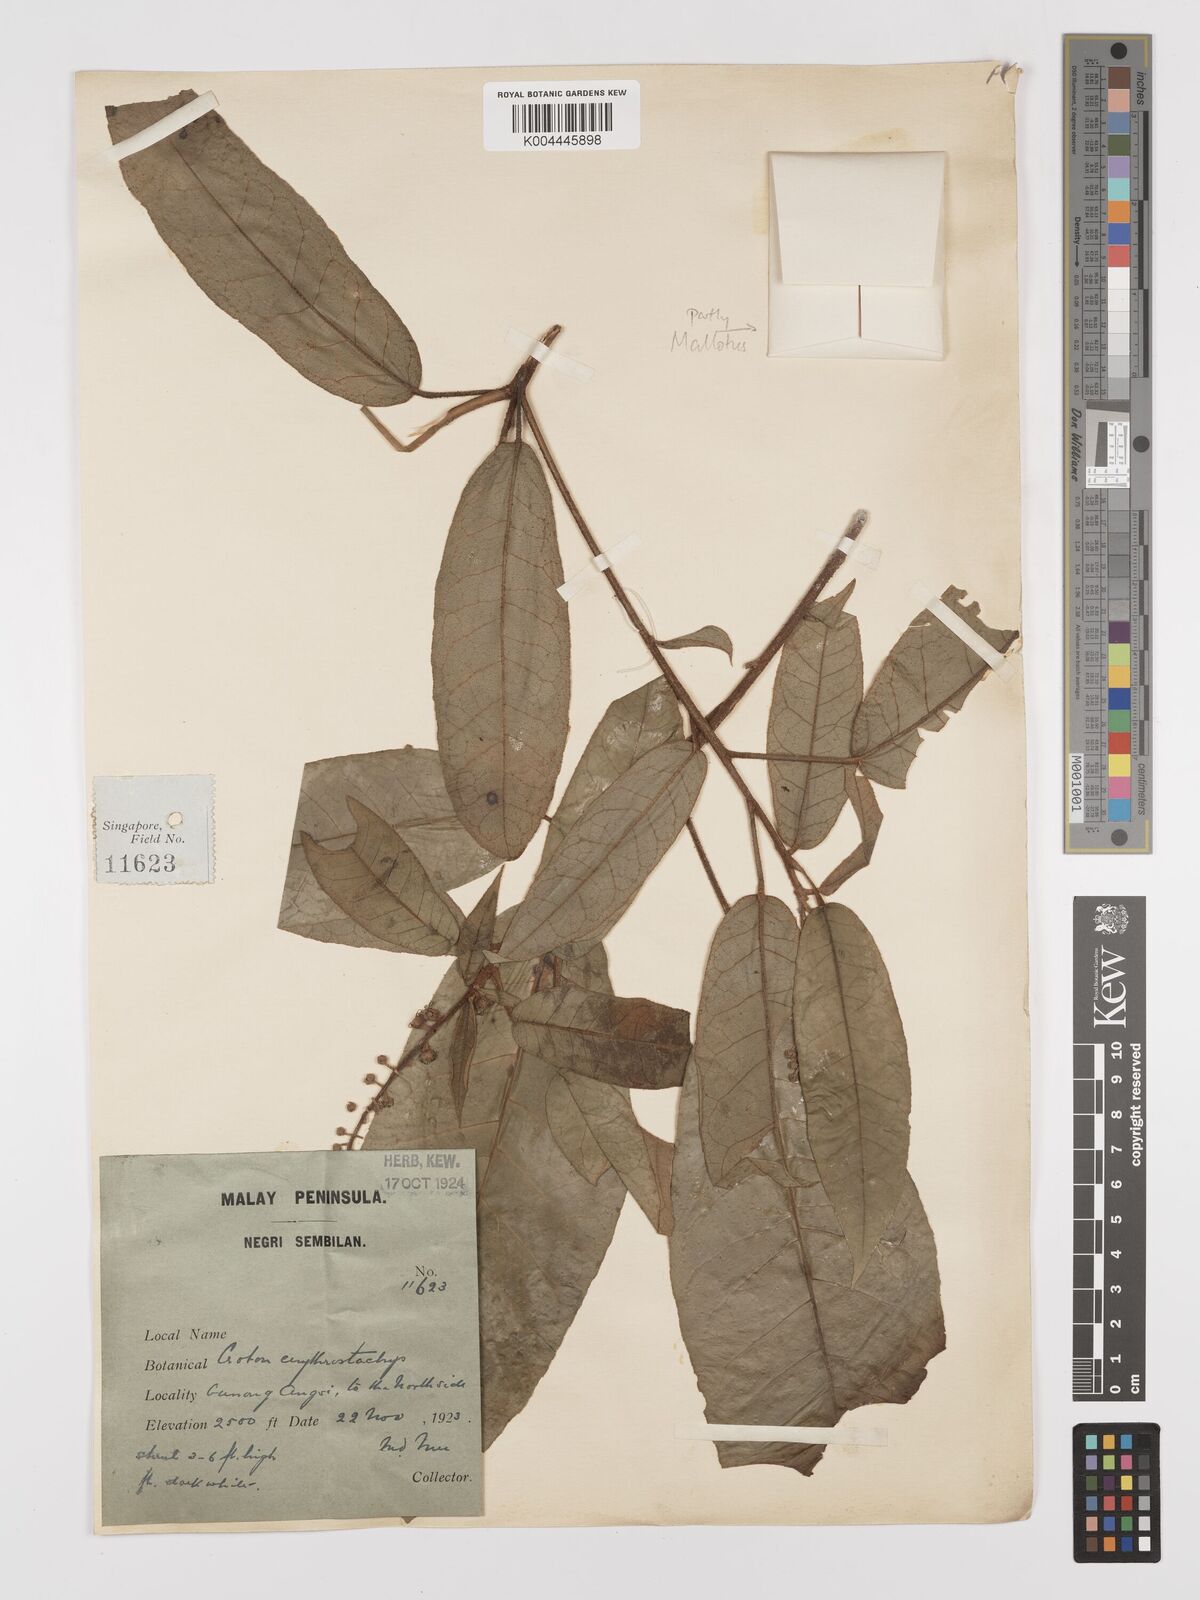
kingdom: Plantae
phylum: Tracheophyta
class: Magnoliopsida
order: Malpighiales
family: Euphorbiaceae
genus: Croton
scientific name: Croton erythrostachys
